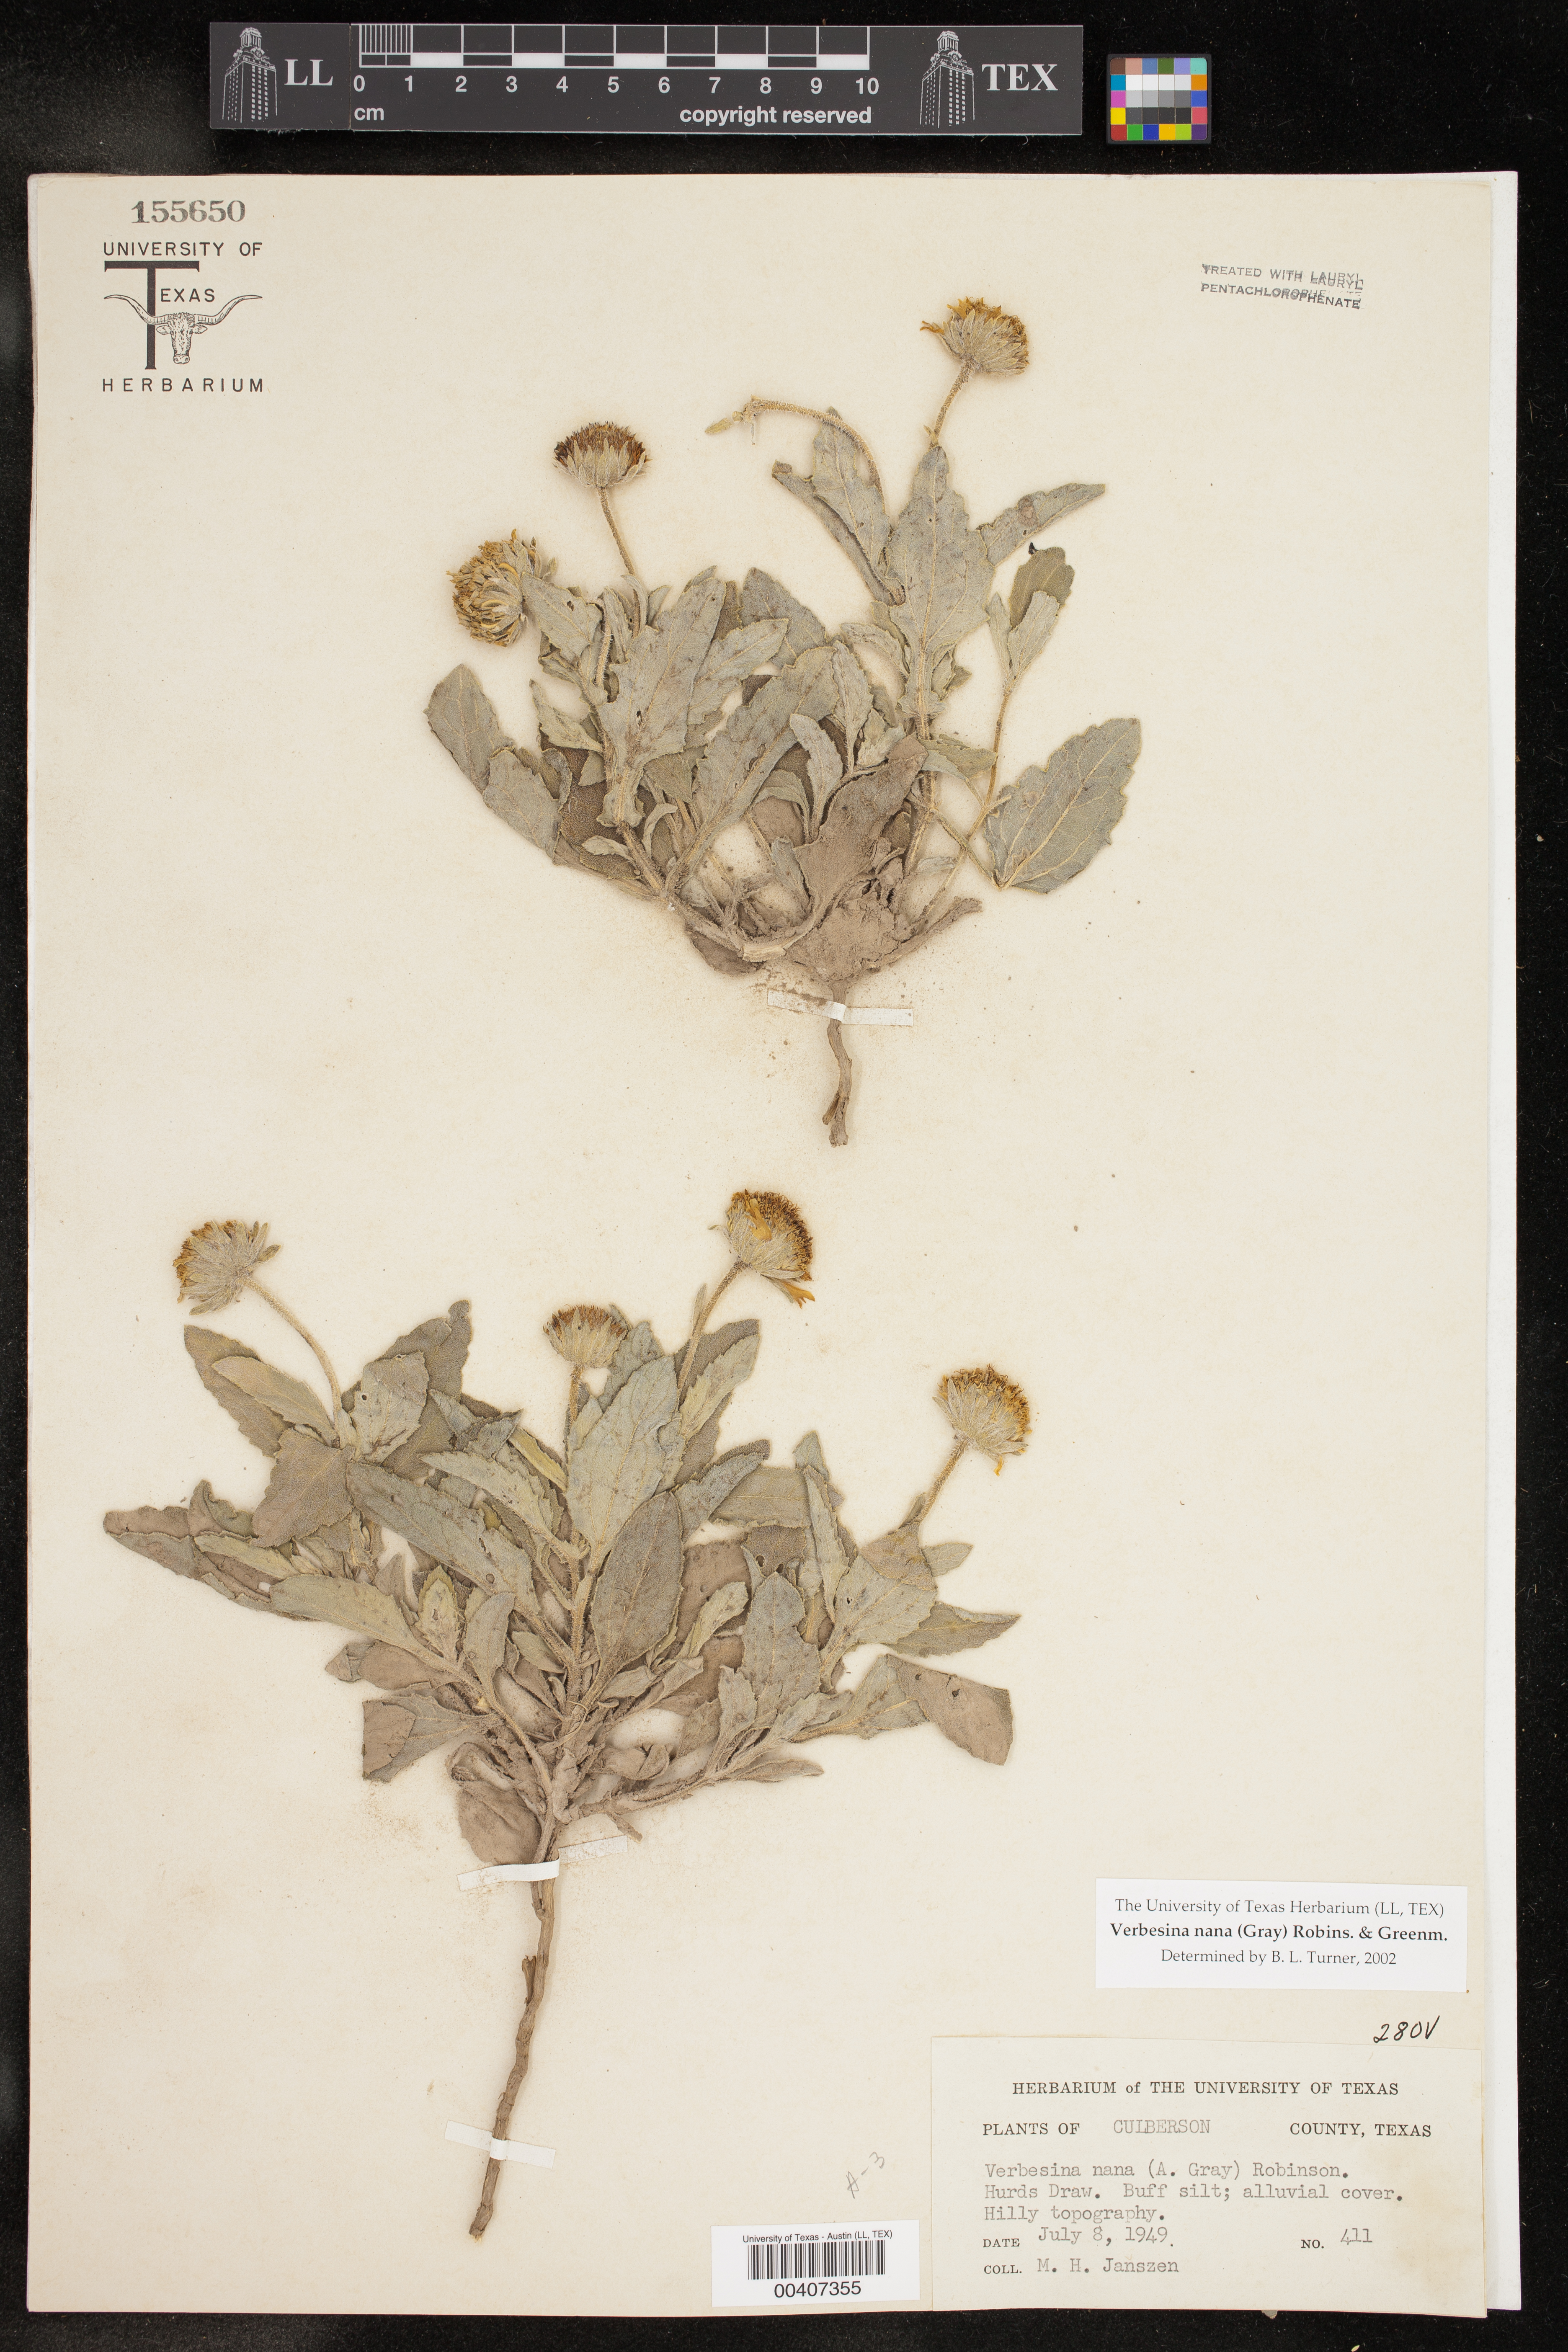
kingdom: Plantae
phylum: Tracheophyta
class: Magnoliopsida
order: Asterales
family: Asteraceae
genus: Verbesina
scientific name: Verbesina nana
